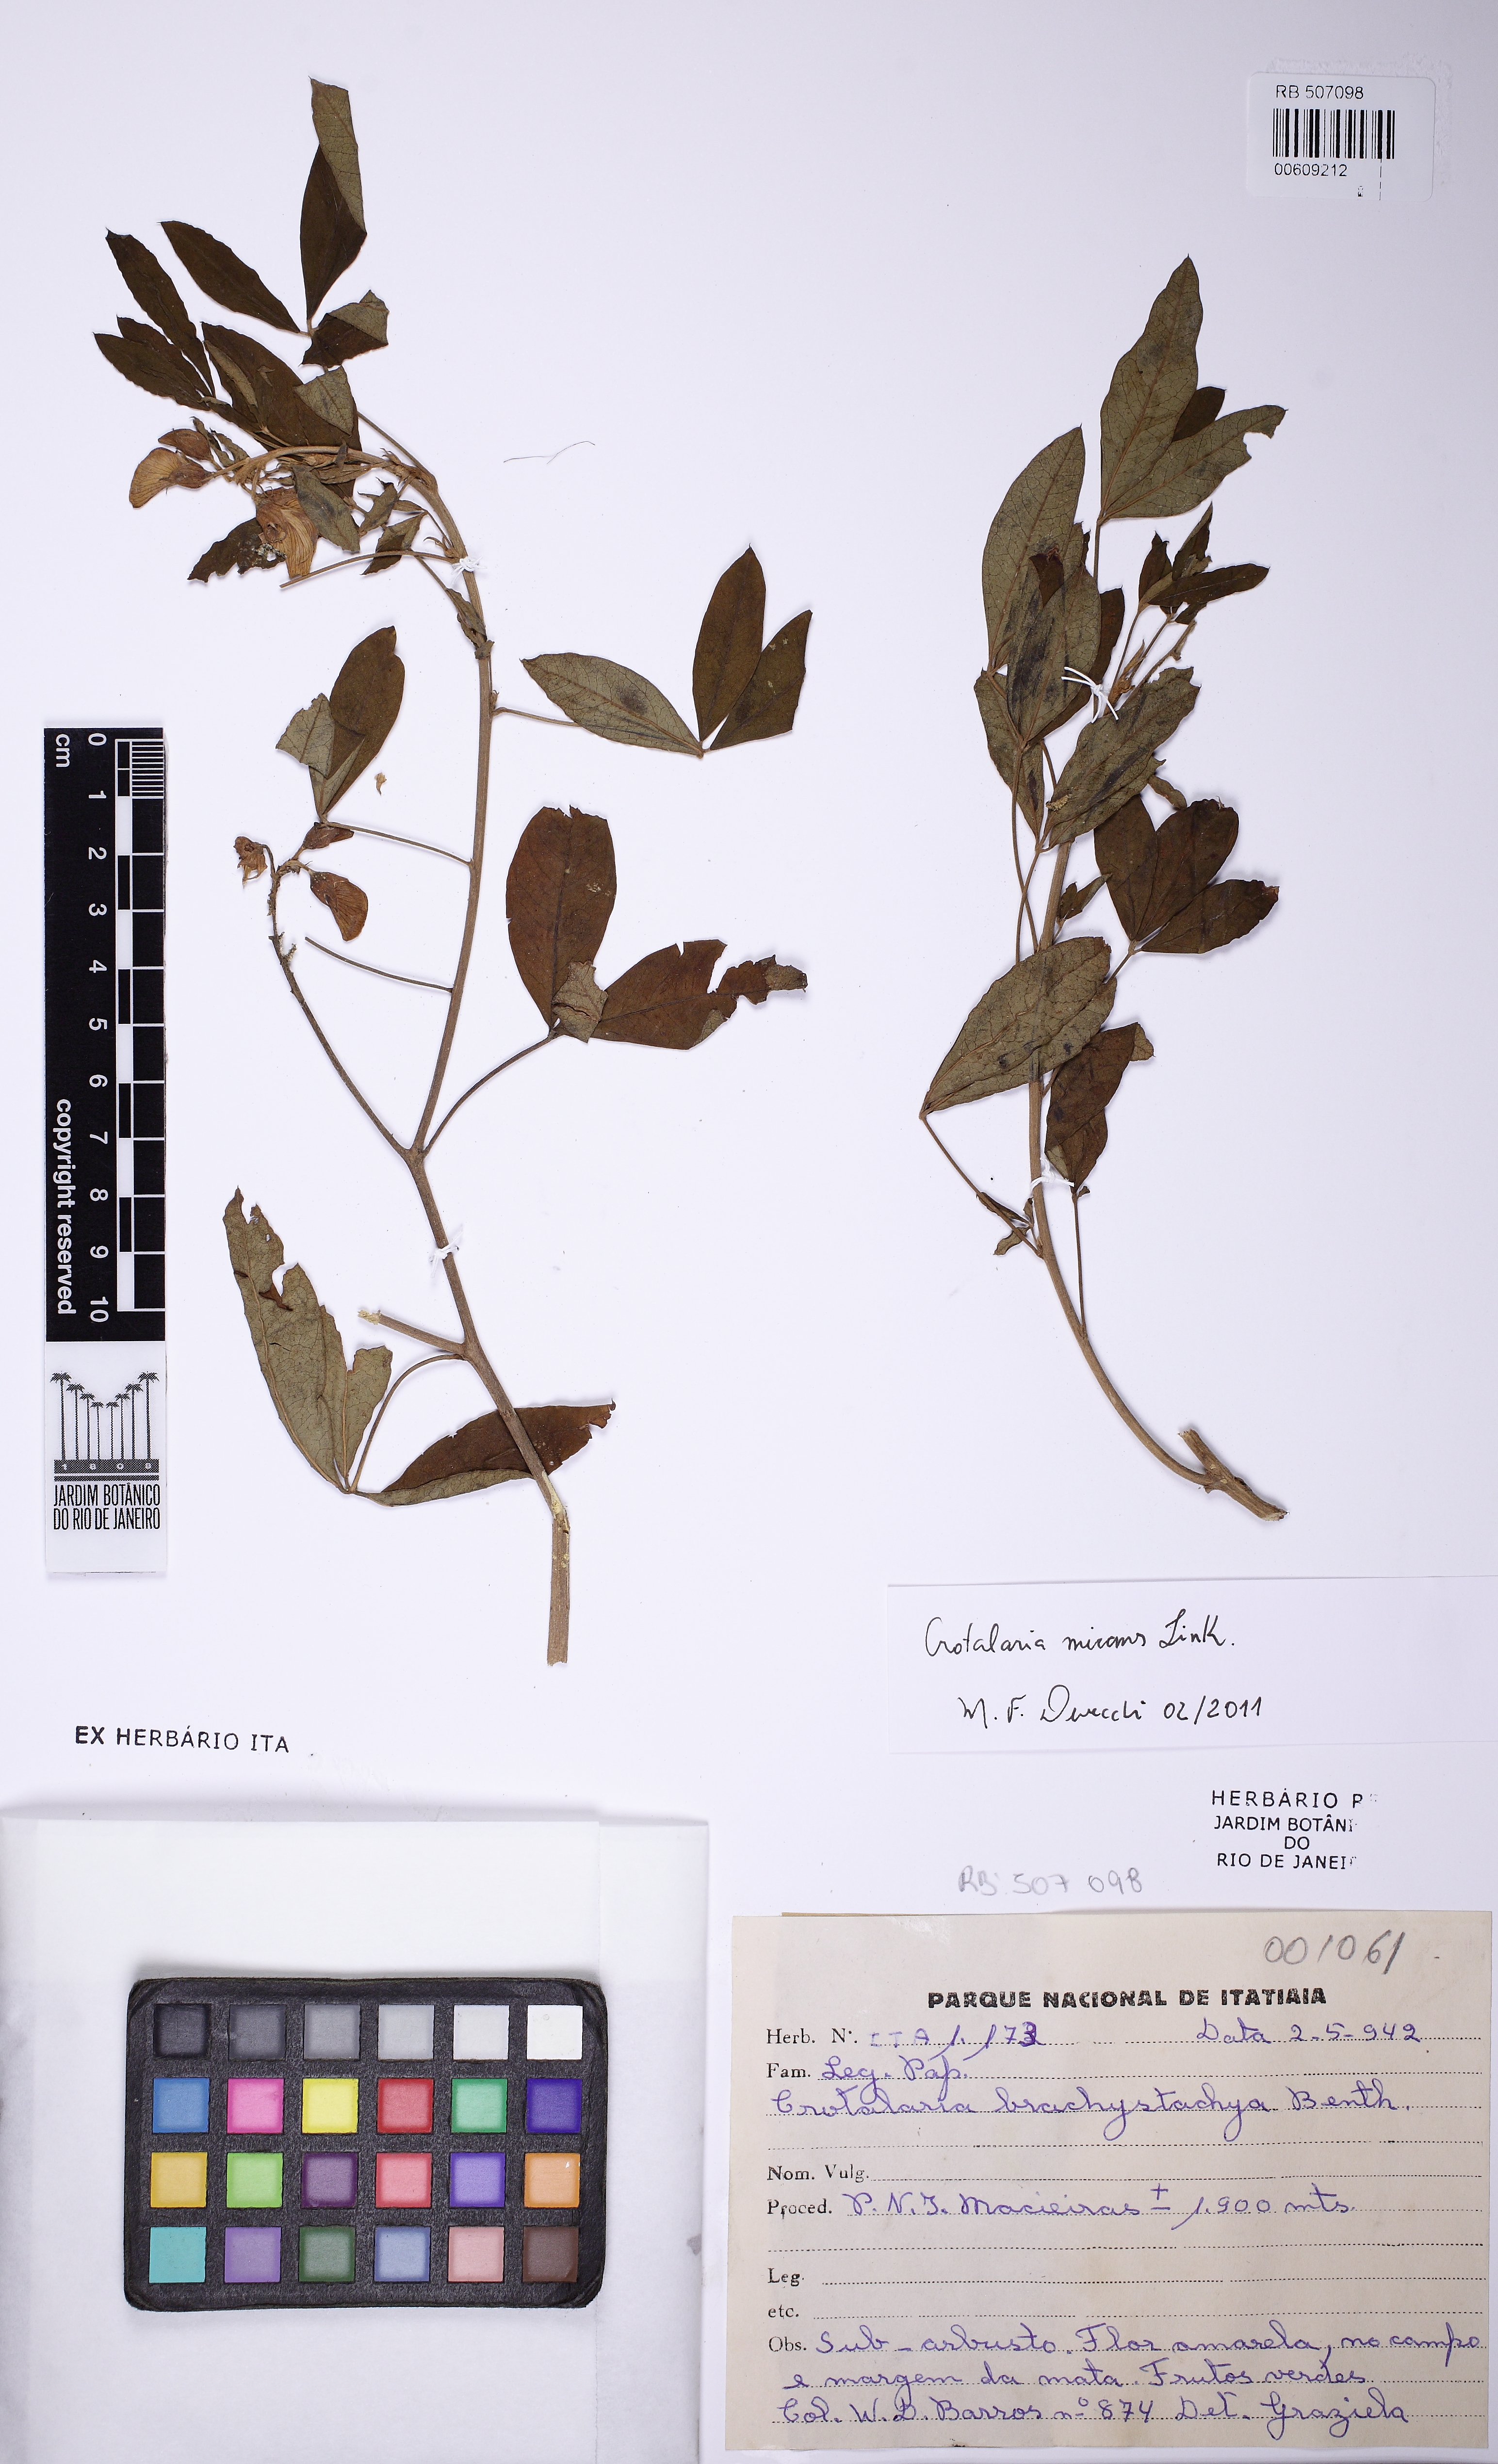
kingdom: Plantae
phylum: Tracheophyta
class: Magnoliopsida
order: Fabales
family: Fabaceae
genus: Crotalaria
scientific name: Crotalaria micans
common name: Caracas rattlebox
